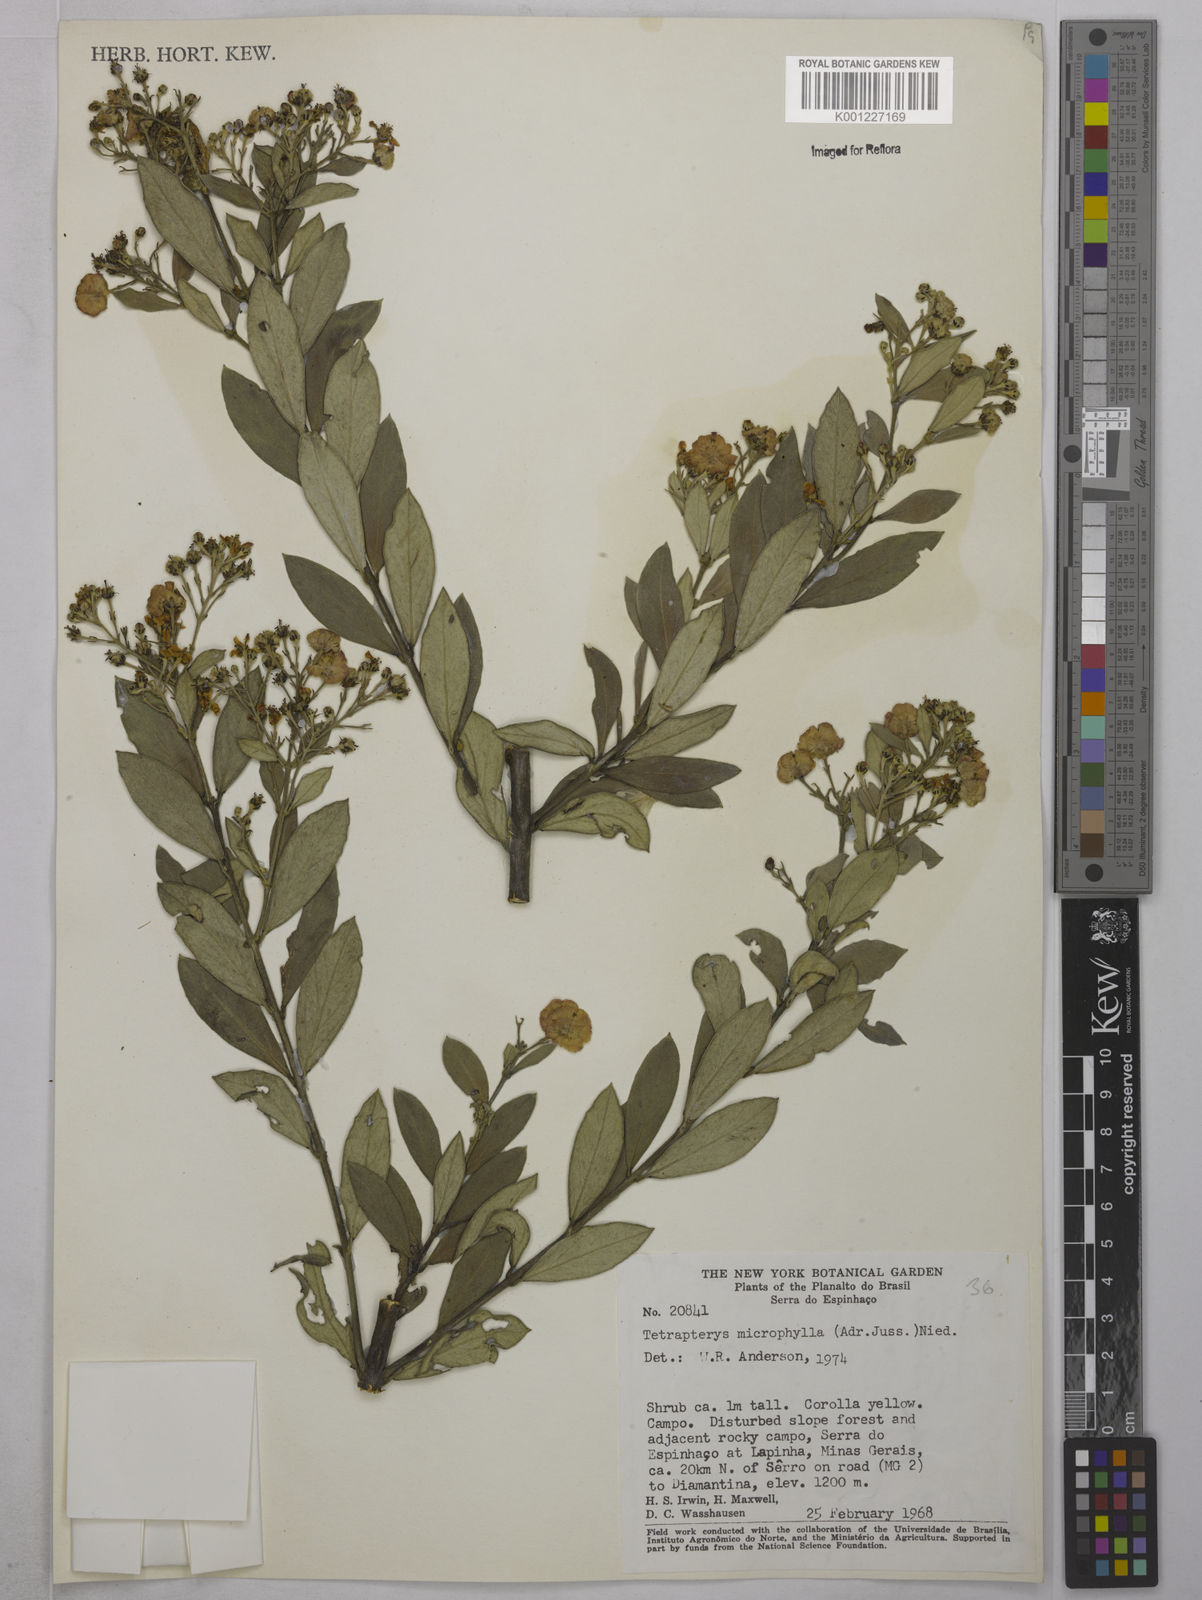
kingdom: Plantae
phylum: Tracheophyta
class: Magnoliopsida
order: Malpighiales
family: Malpighiaceae
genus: Glicophyllum
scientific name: Glicophyllum microphyllum
